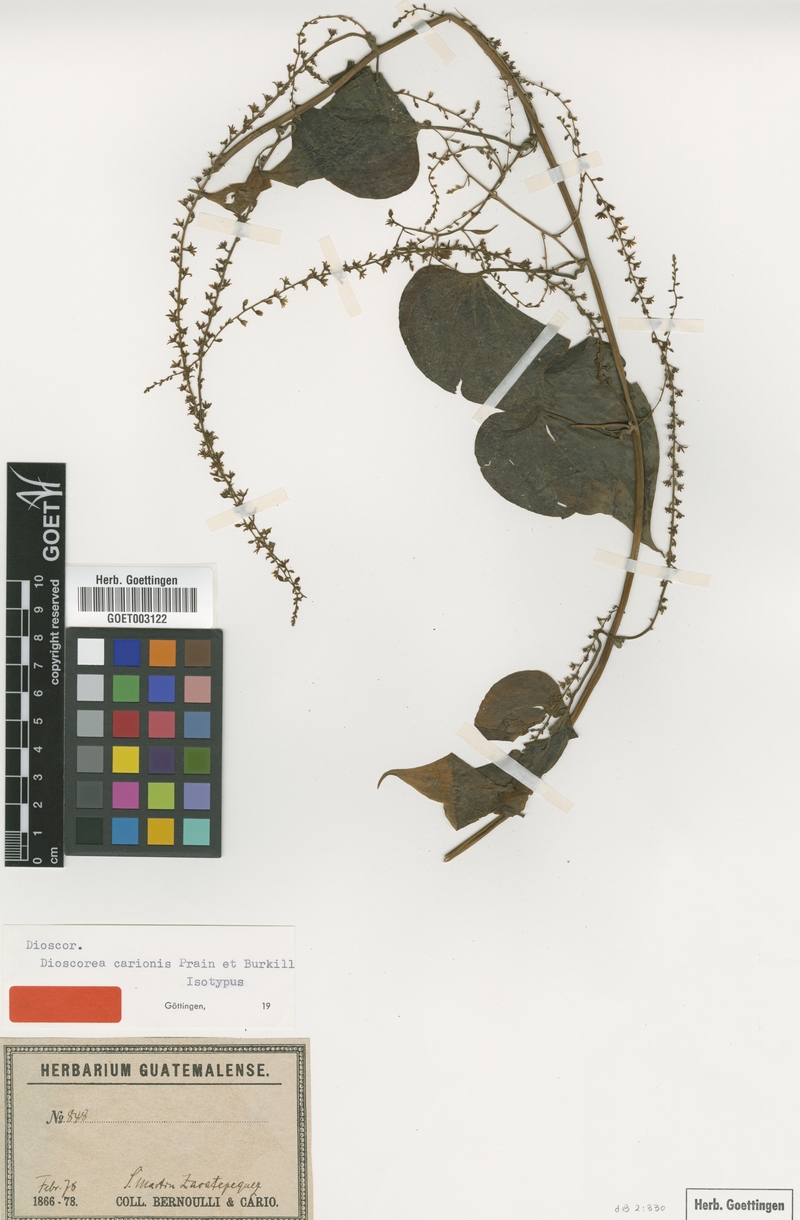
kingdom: Plantae
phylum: Tracheophyta
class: Liliopsida
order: Dioscoreales
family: Dioscoreaceae
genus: Dioscorea
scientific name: Dioscorea carionis
